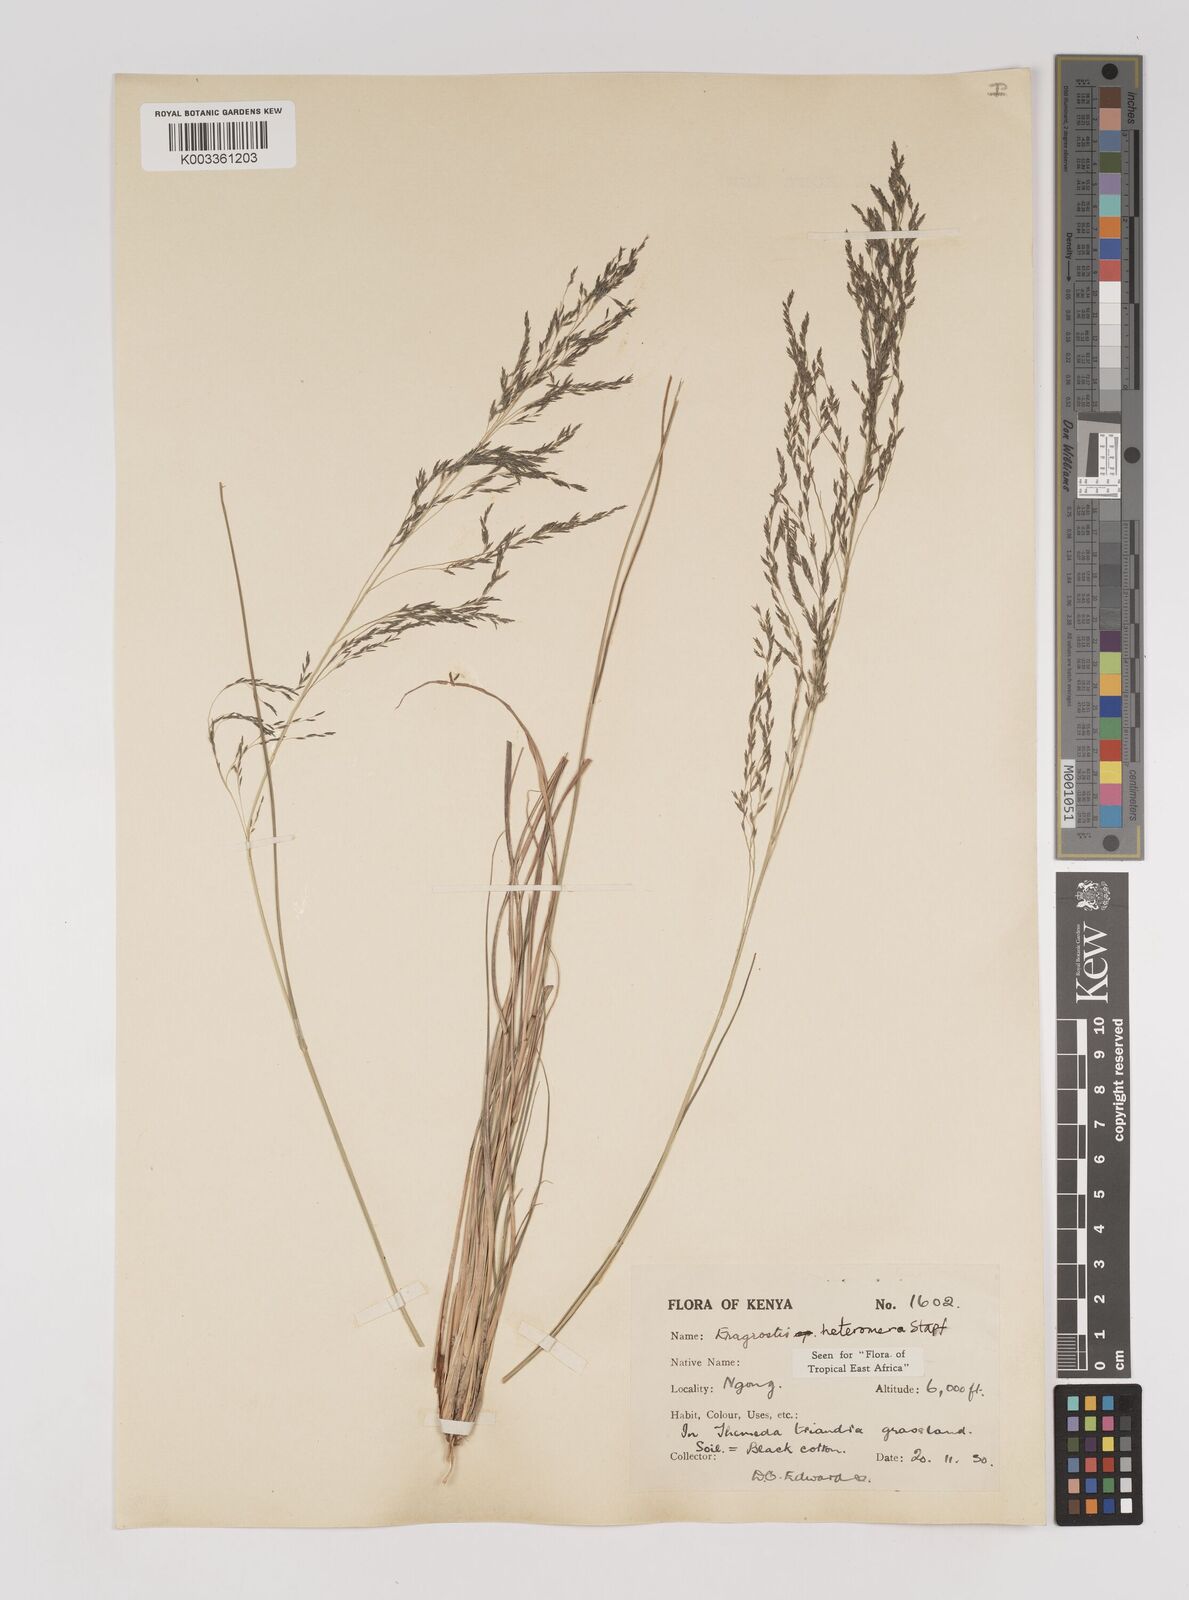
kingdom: Plantae
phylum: Tracheophyta
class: Liliopsida
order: Poales
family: Poaceae
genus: Eragrostis
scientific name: Eragrostis heteromera
